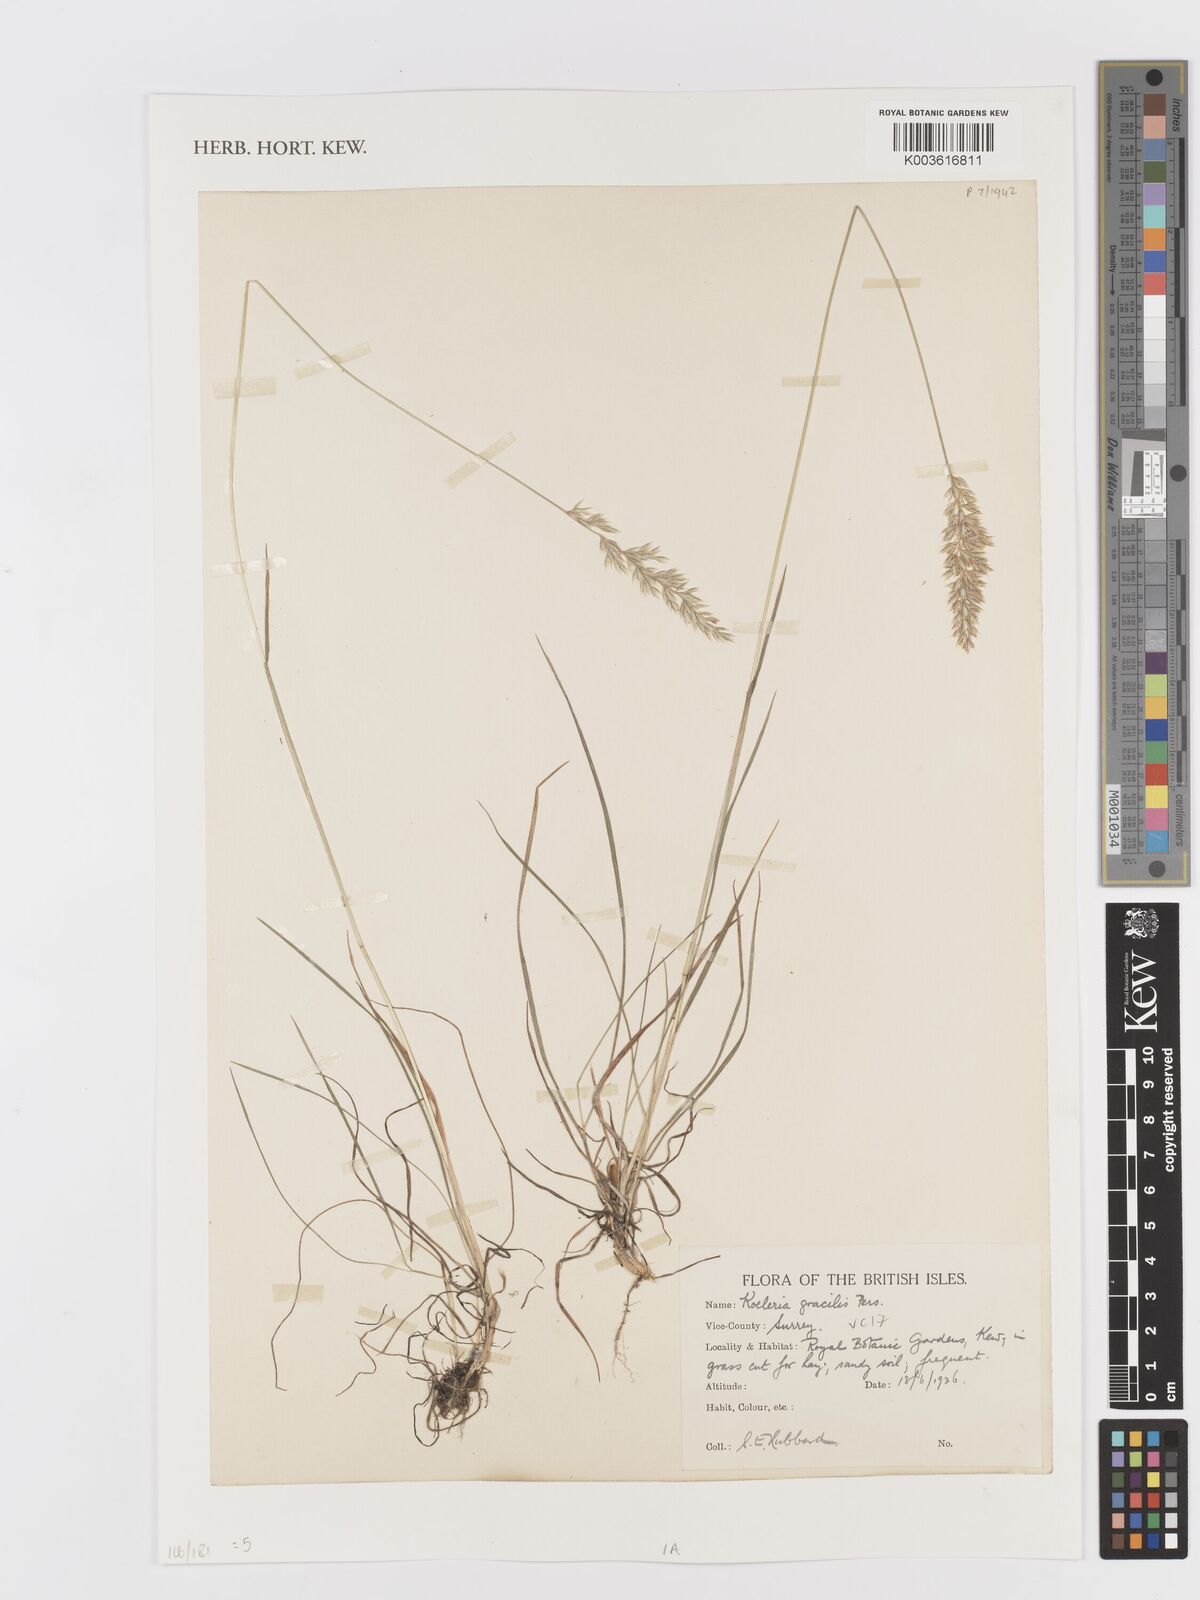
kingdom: Plantae
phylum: Tracheophyta
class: Liliopsida
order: Poales
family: Poaceae
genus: Koeleria
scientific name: Koeleria macrantha
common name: Crested hair-grass
